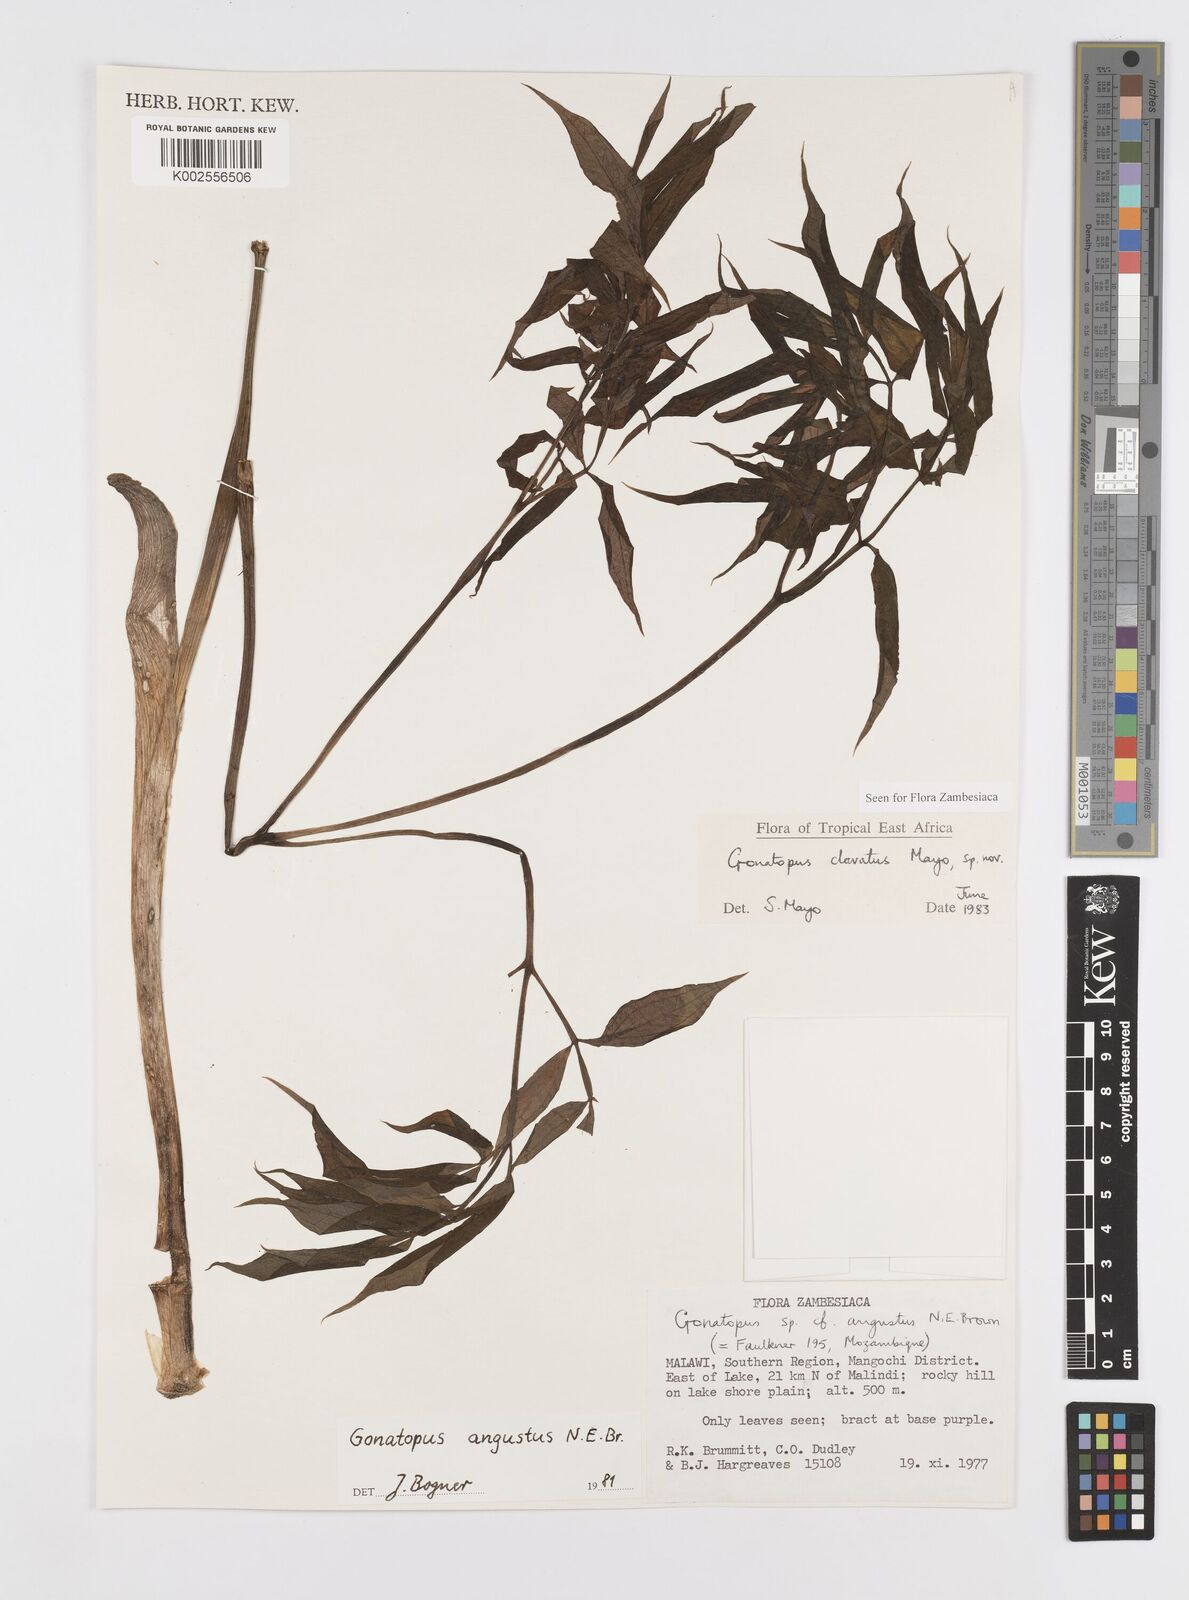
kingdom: Plantae
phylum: Tracheophyta
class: Liliopsida
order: Alismatales
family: Araceae
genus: Gonatopus
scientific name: Gonatopus clavatus
